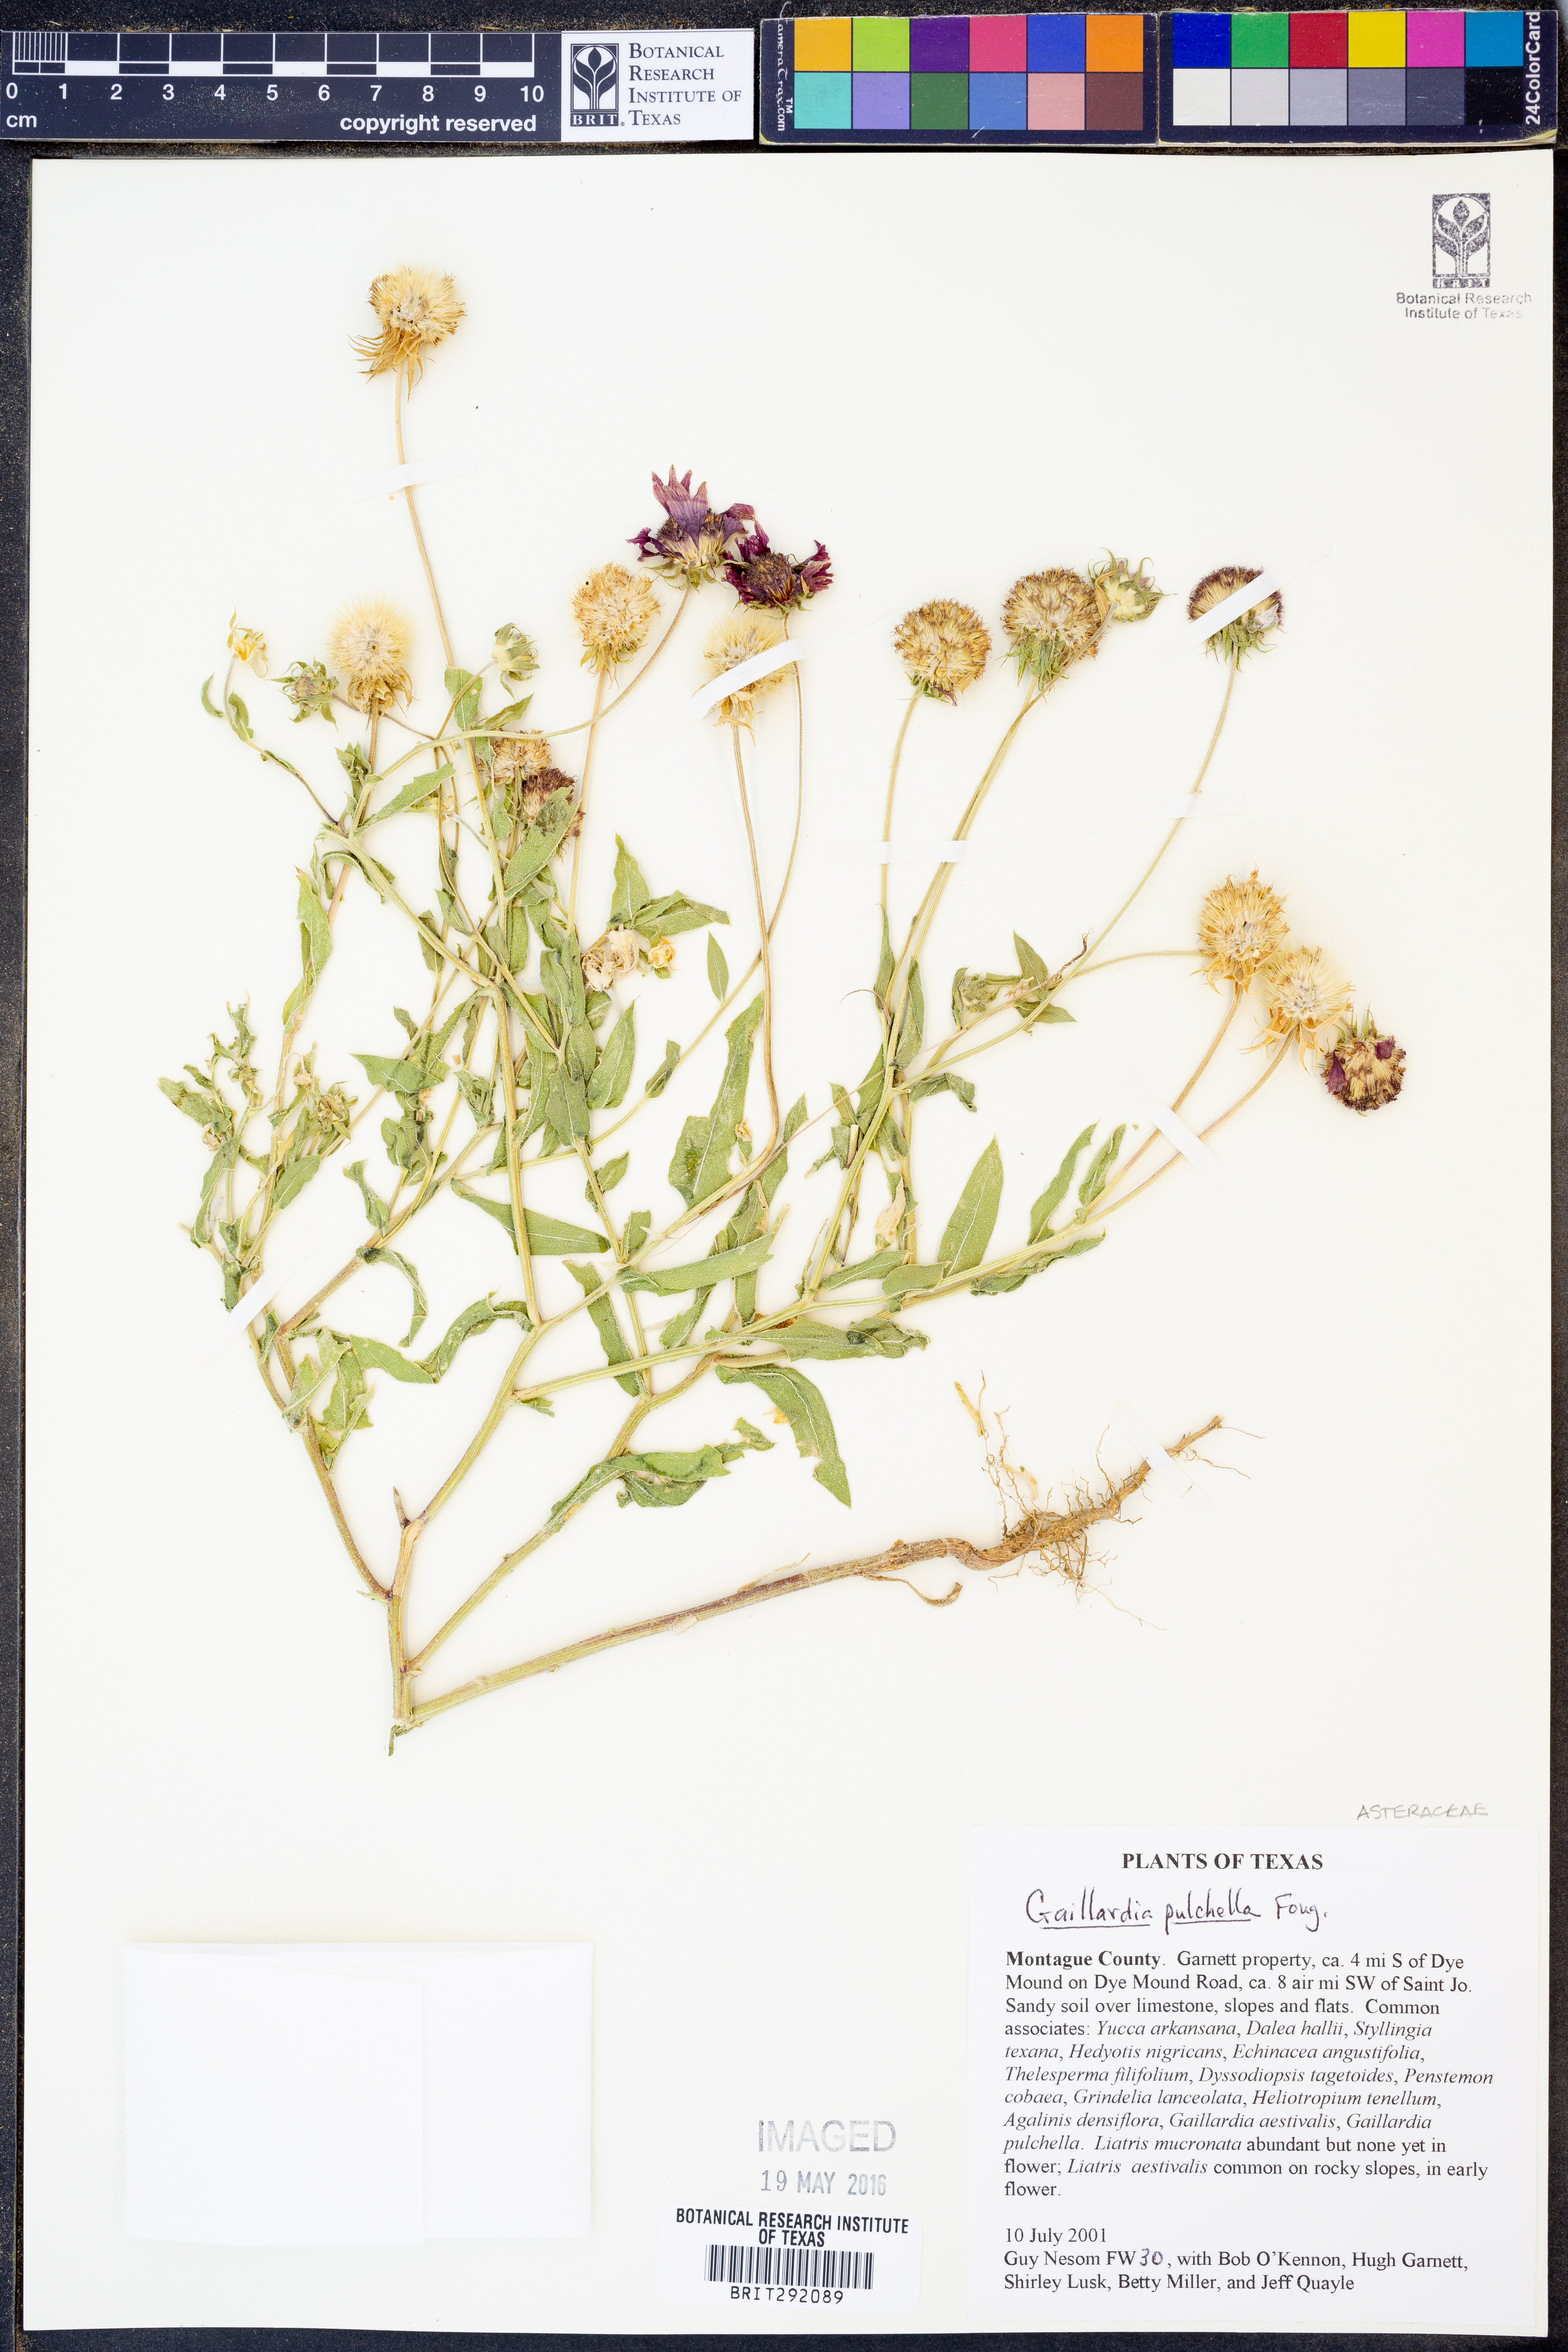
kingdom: Plantae
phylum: Tracheophyta
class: Magnoliopsida
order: Asterales
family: Asteraceae
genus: Gaillardia
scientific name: Gaillardia pulchella
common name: Firewheel
